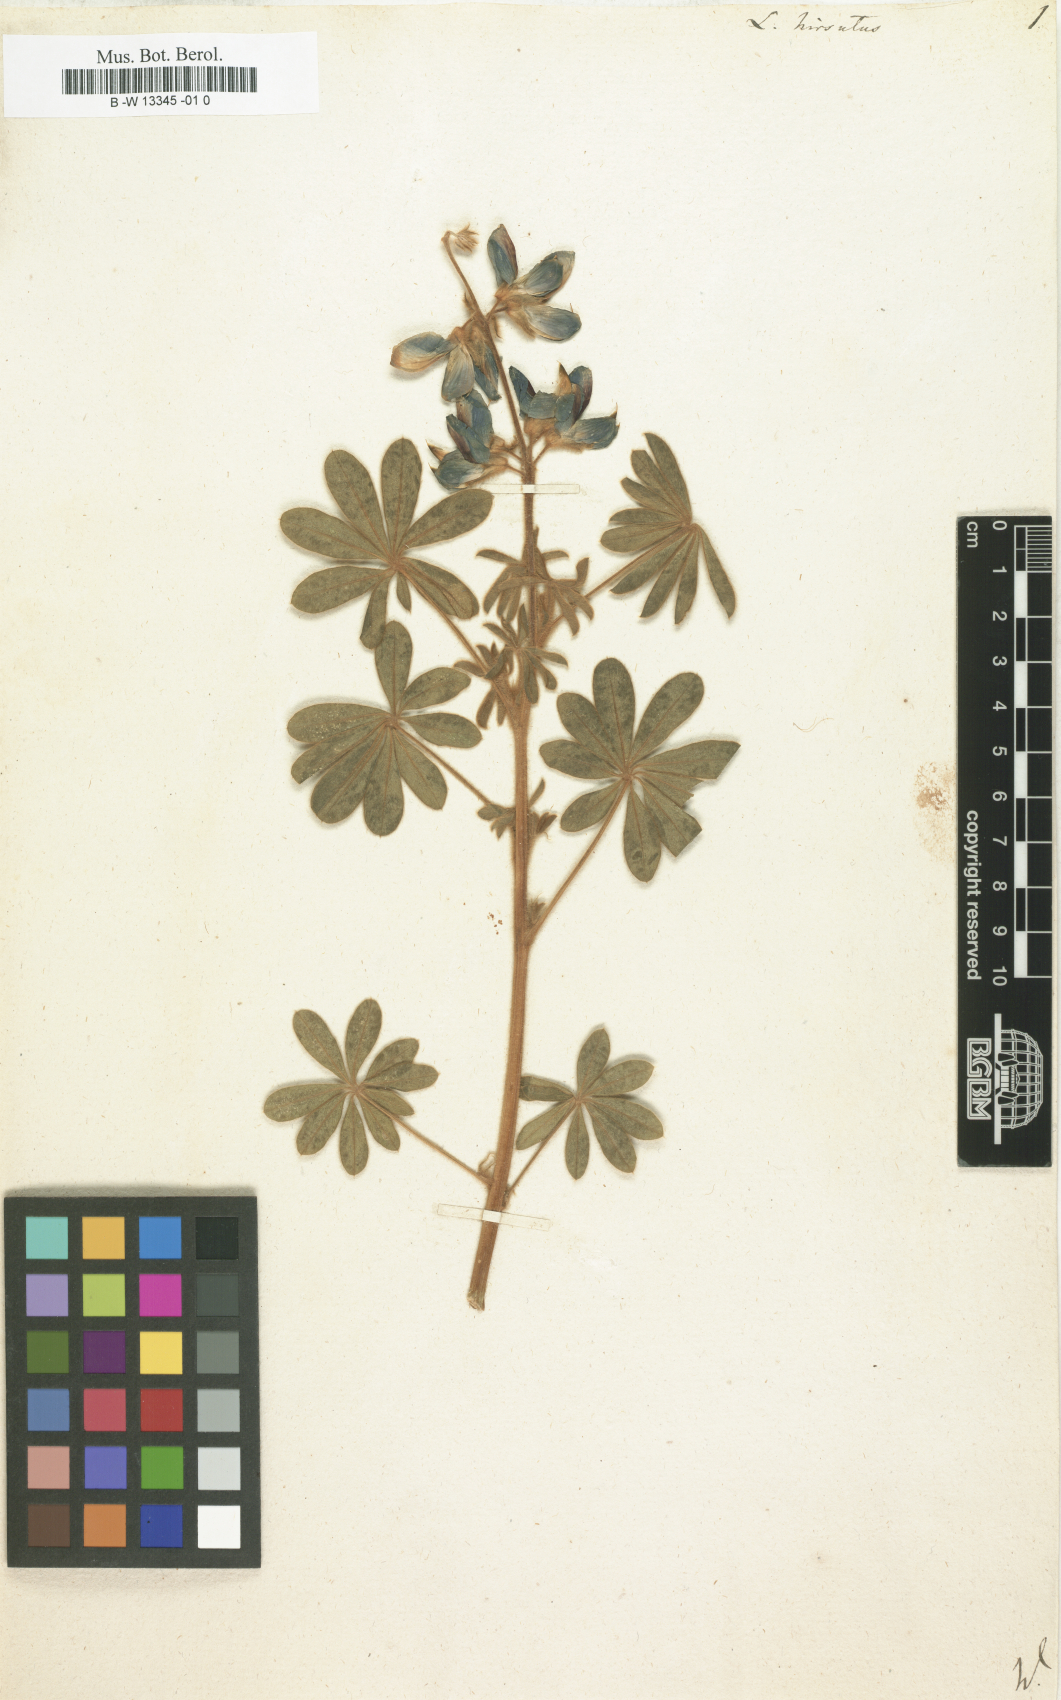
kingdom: Plantae
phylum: Tracheophyta
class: Magnoliopsida
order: Fabales
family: Fabaceae
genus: Lupinus
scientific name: Lupinus
